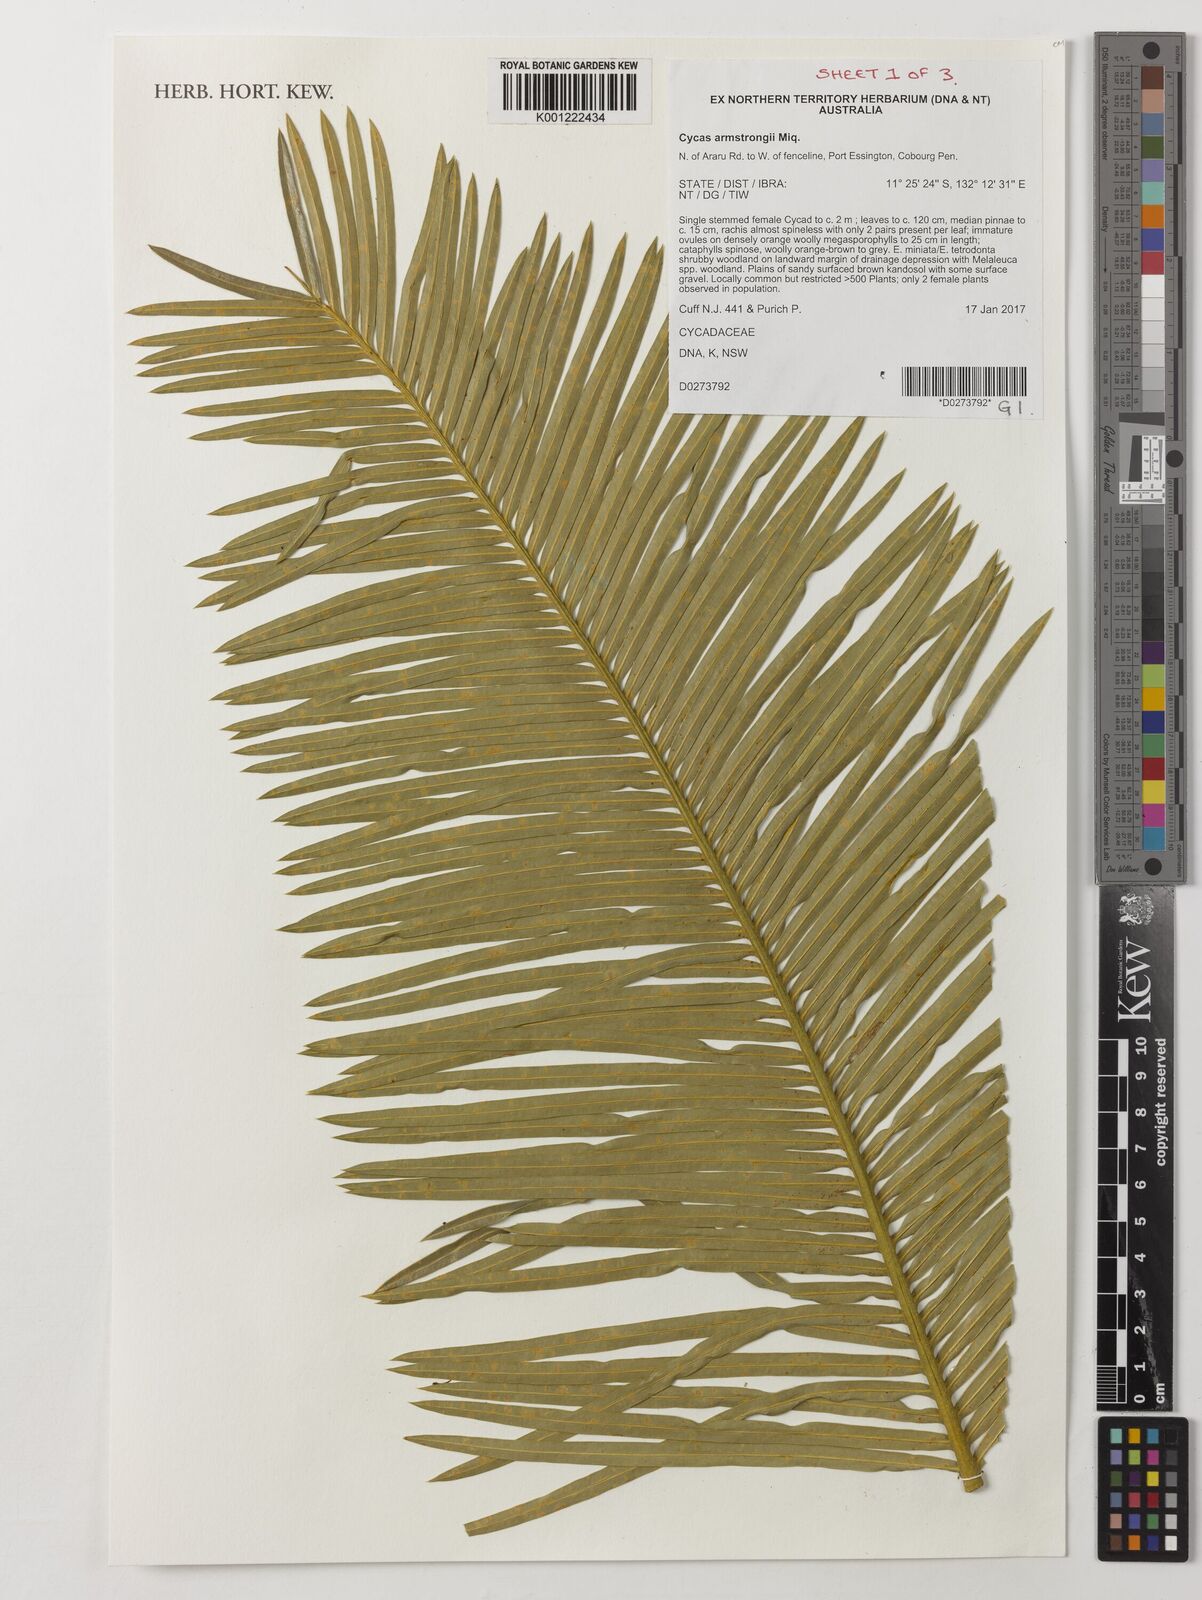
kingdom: Plantae
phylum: Tracheophyta
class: Cycadopsida
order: Cycadales
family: Cycadaceae
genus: Cycas
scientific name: Cycas armstrongii
